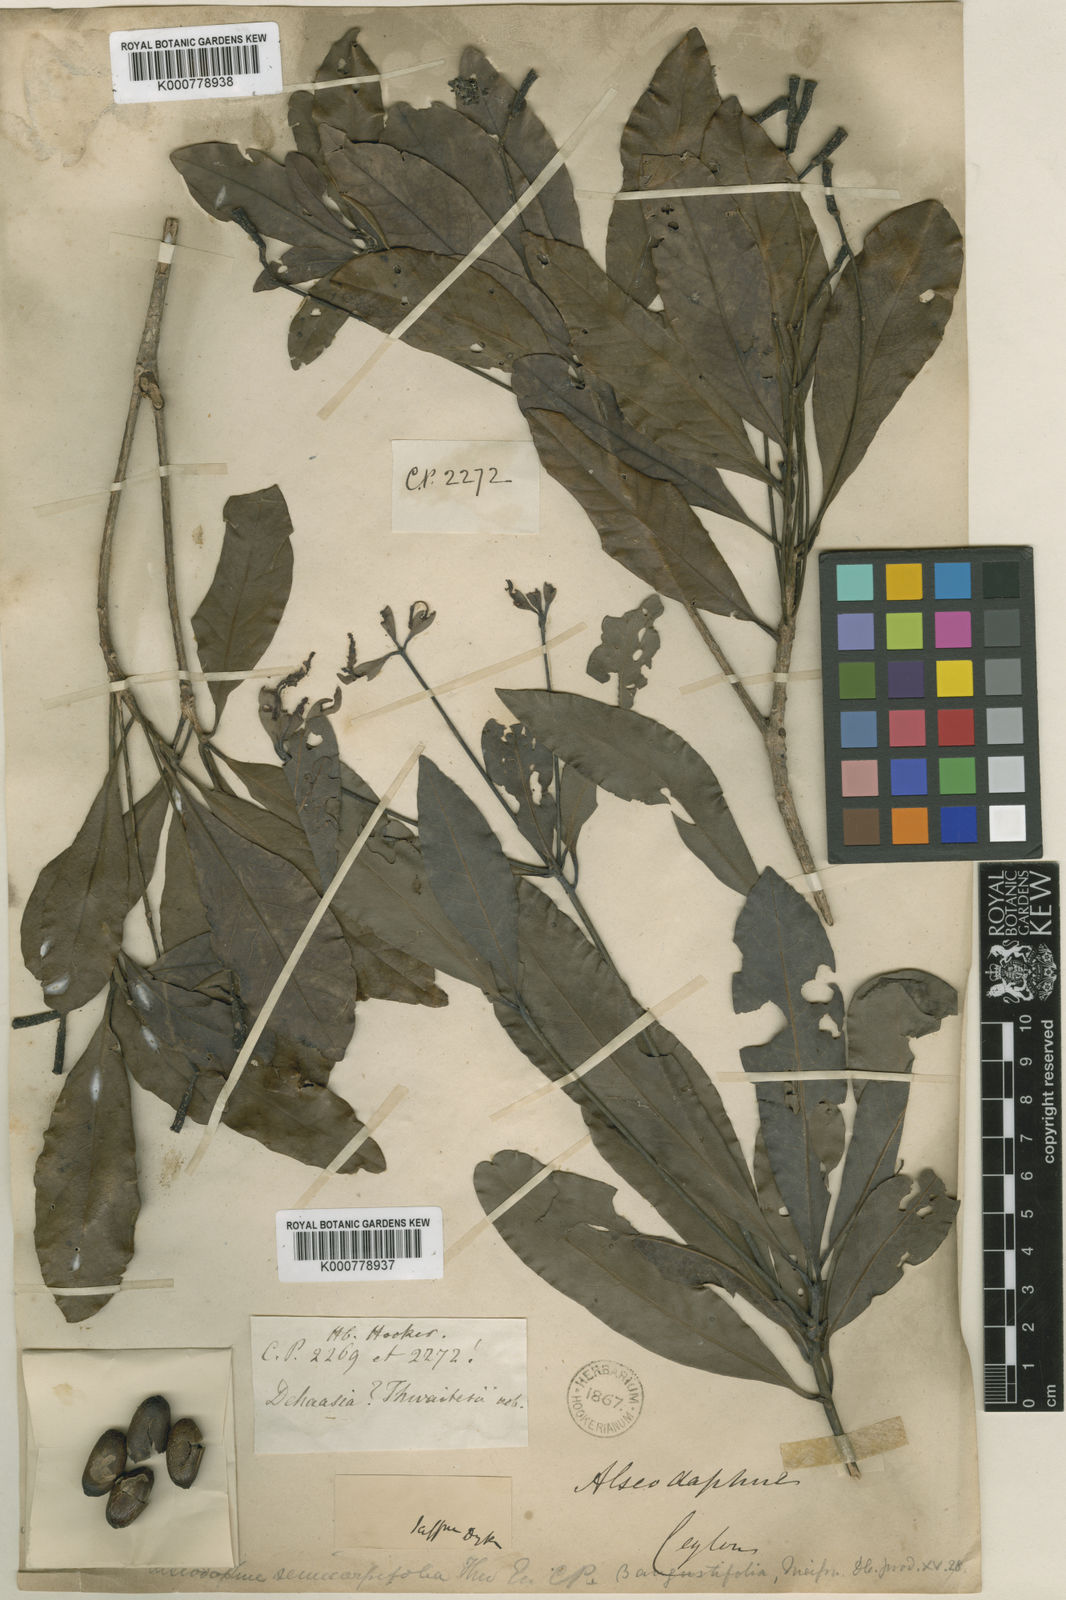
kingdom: Plantae
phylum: Tracheophyta
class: Magnoliopsida
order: Laurales
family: Lauraceae
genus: Alseodaphne
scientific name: Alseodaphne semecarpifolia
